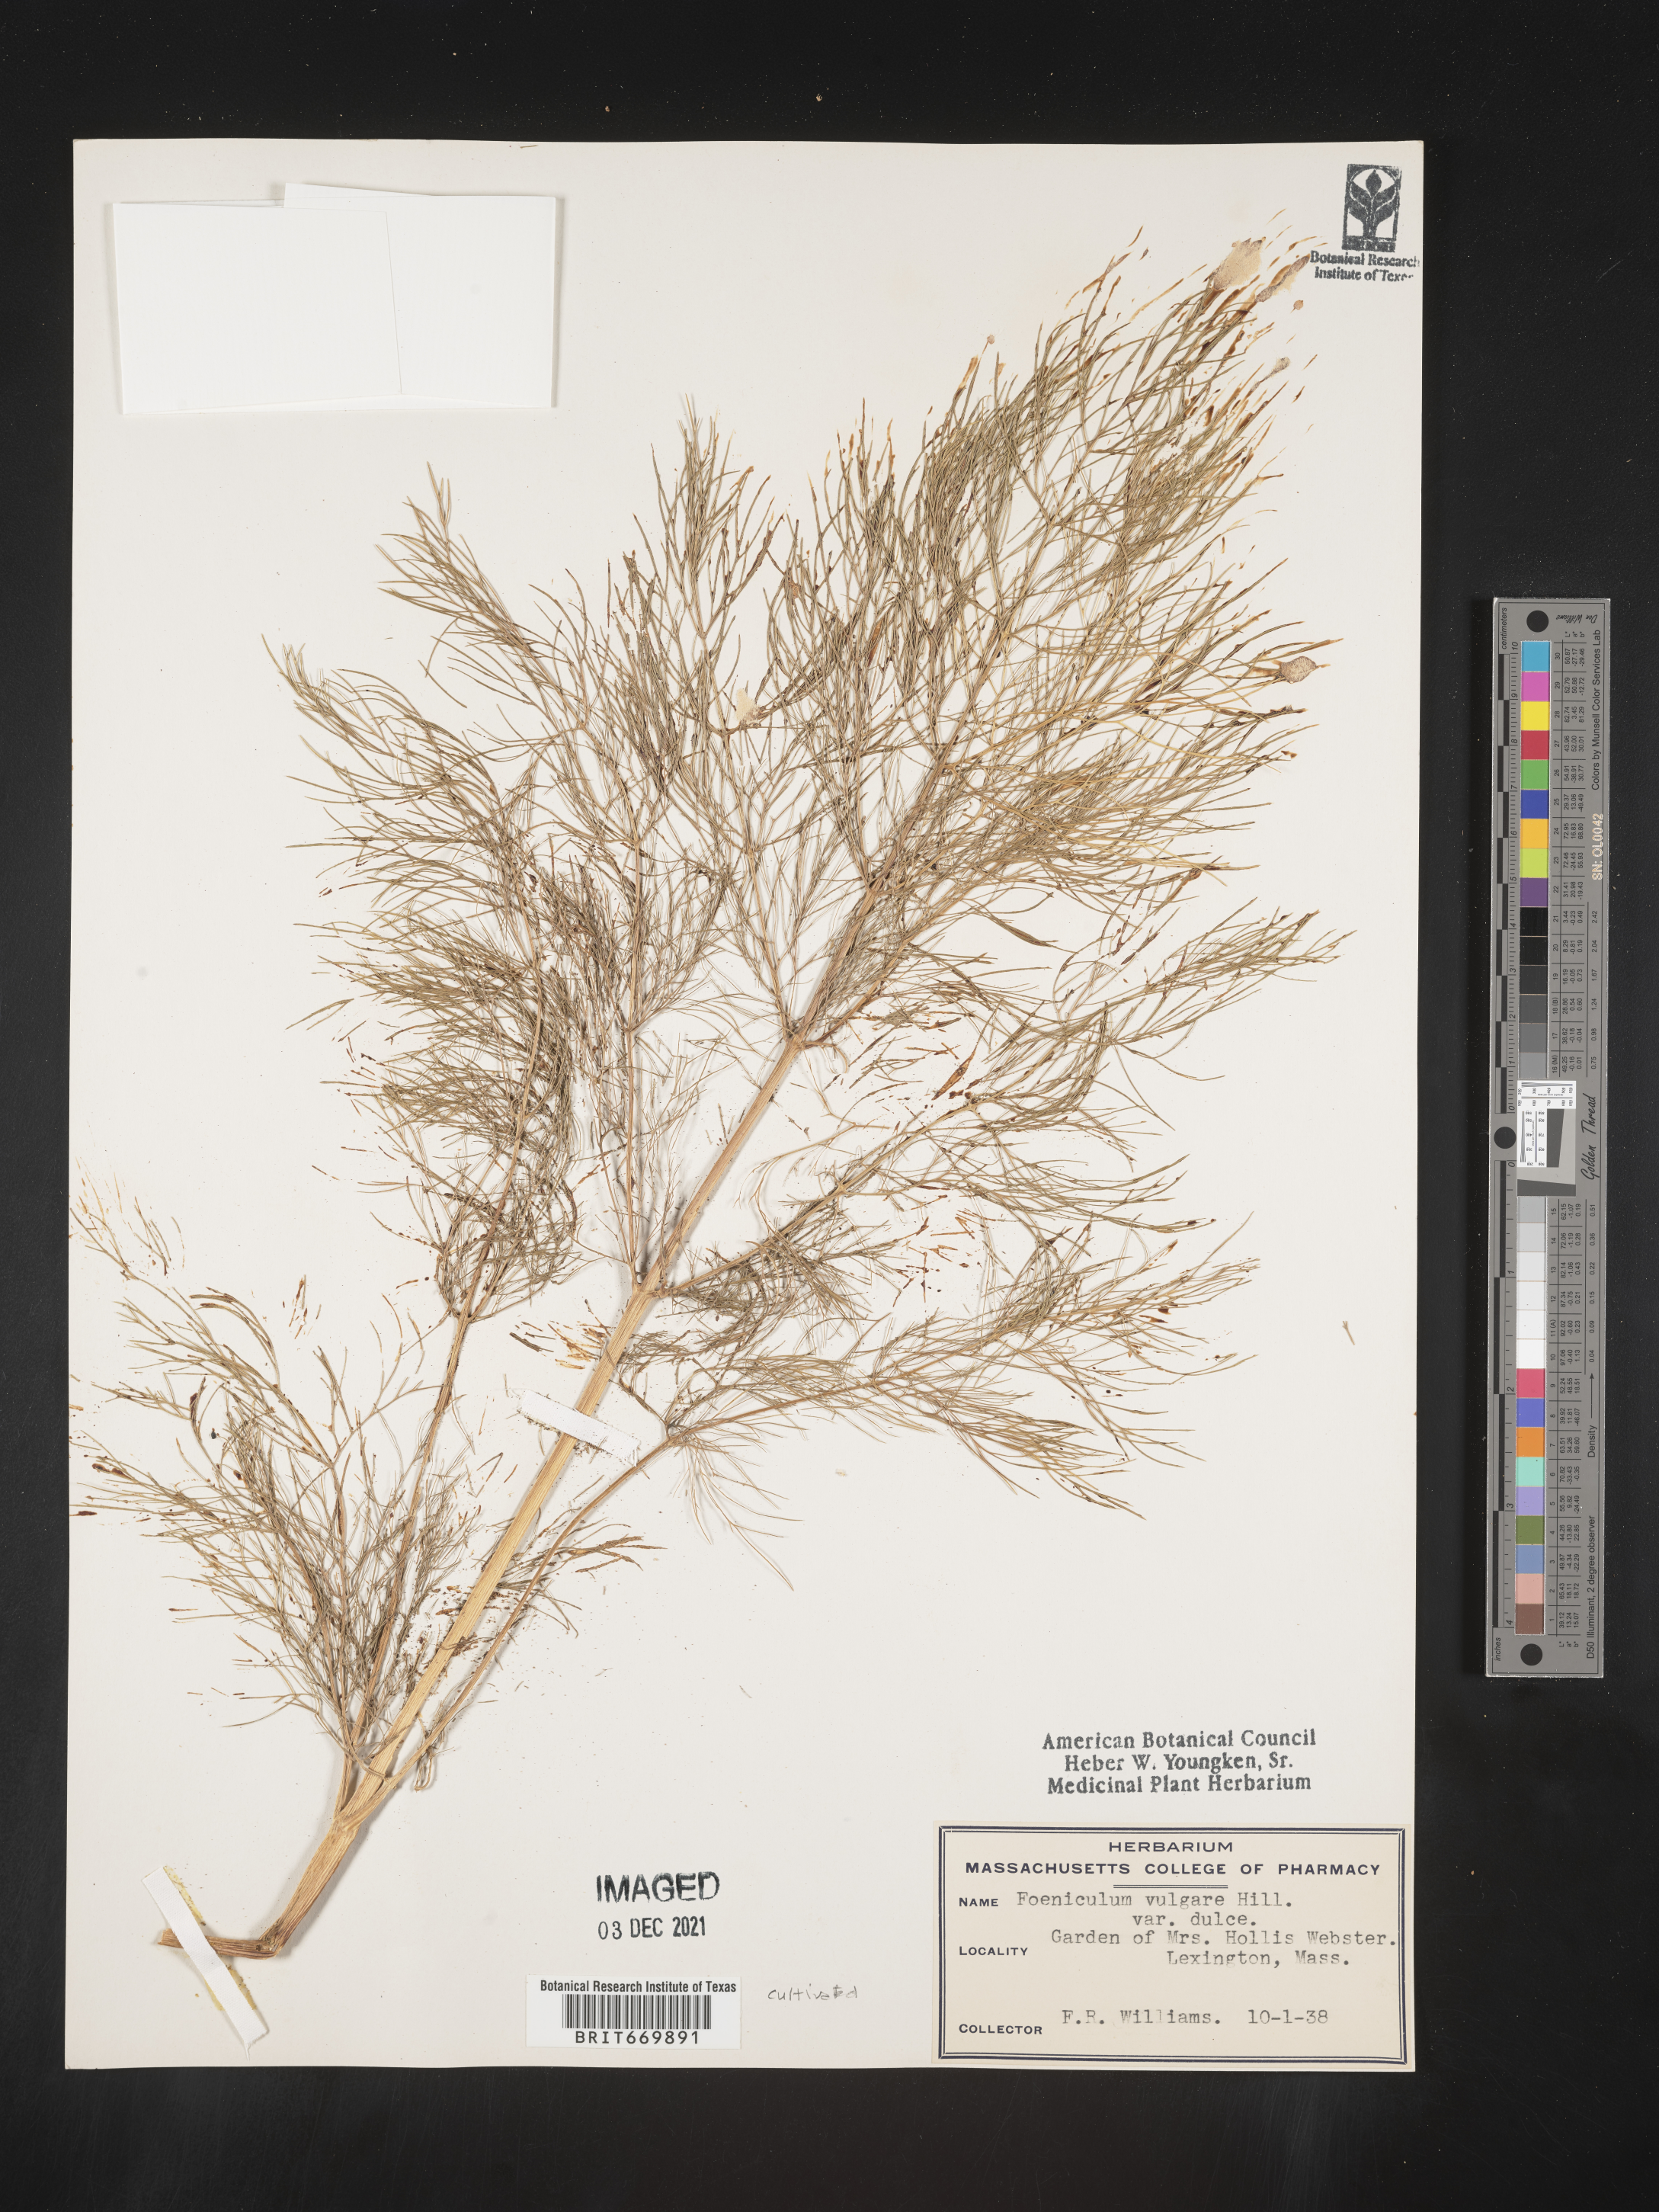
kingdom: Plantae
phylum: Tracheophyta
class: Magnoliopsida
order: Apiales
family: Apiaceae
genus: Foeniculum
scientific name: Foeniculum
